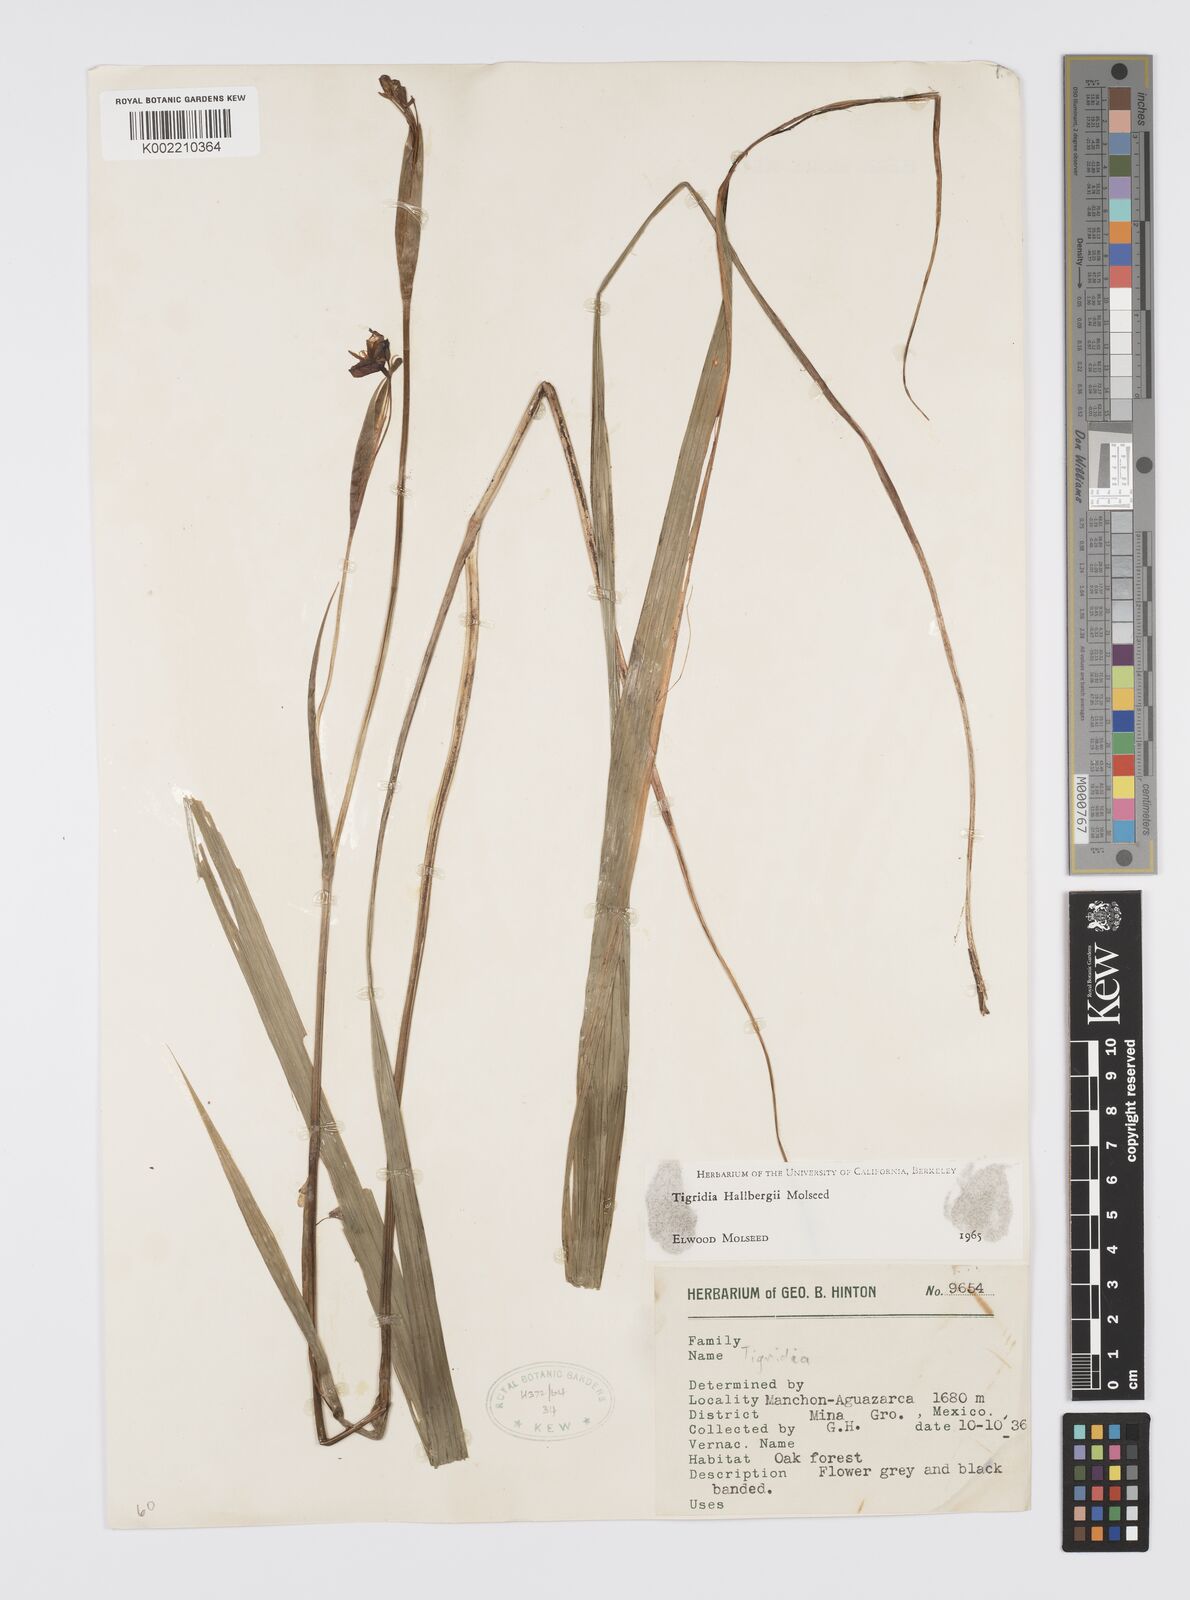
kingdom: Plantae
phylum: Tracheophyta
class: Liliopsida
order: Asparagales
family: Iridaceae
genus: Tigridia
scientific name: Tigridia hallbergii
